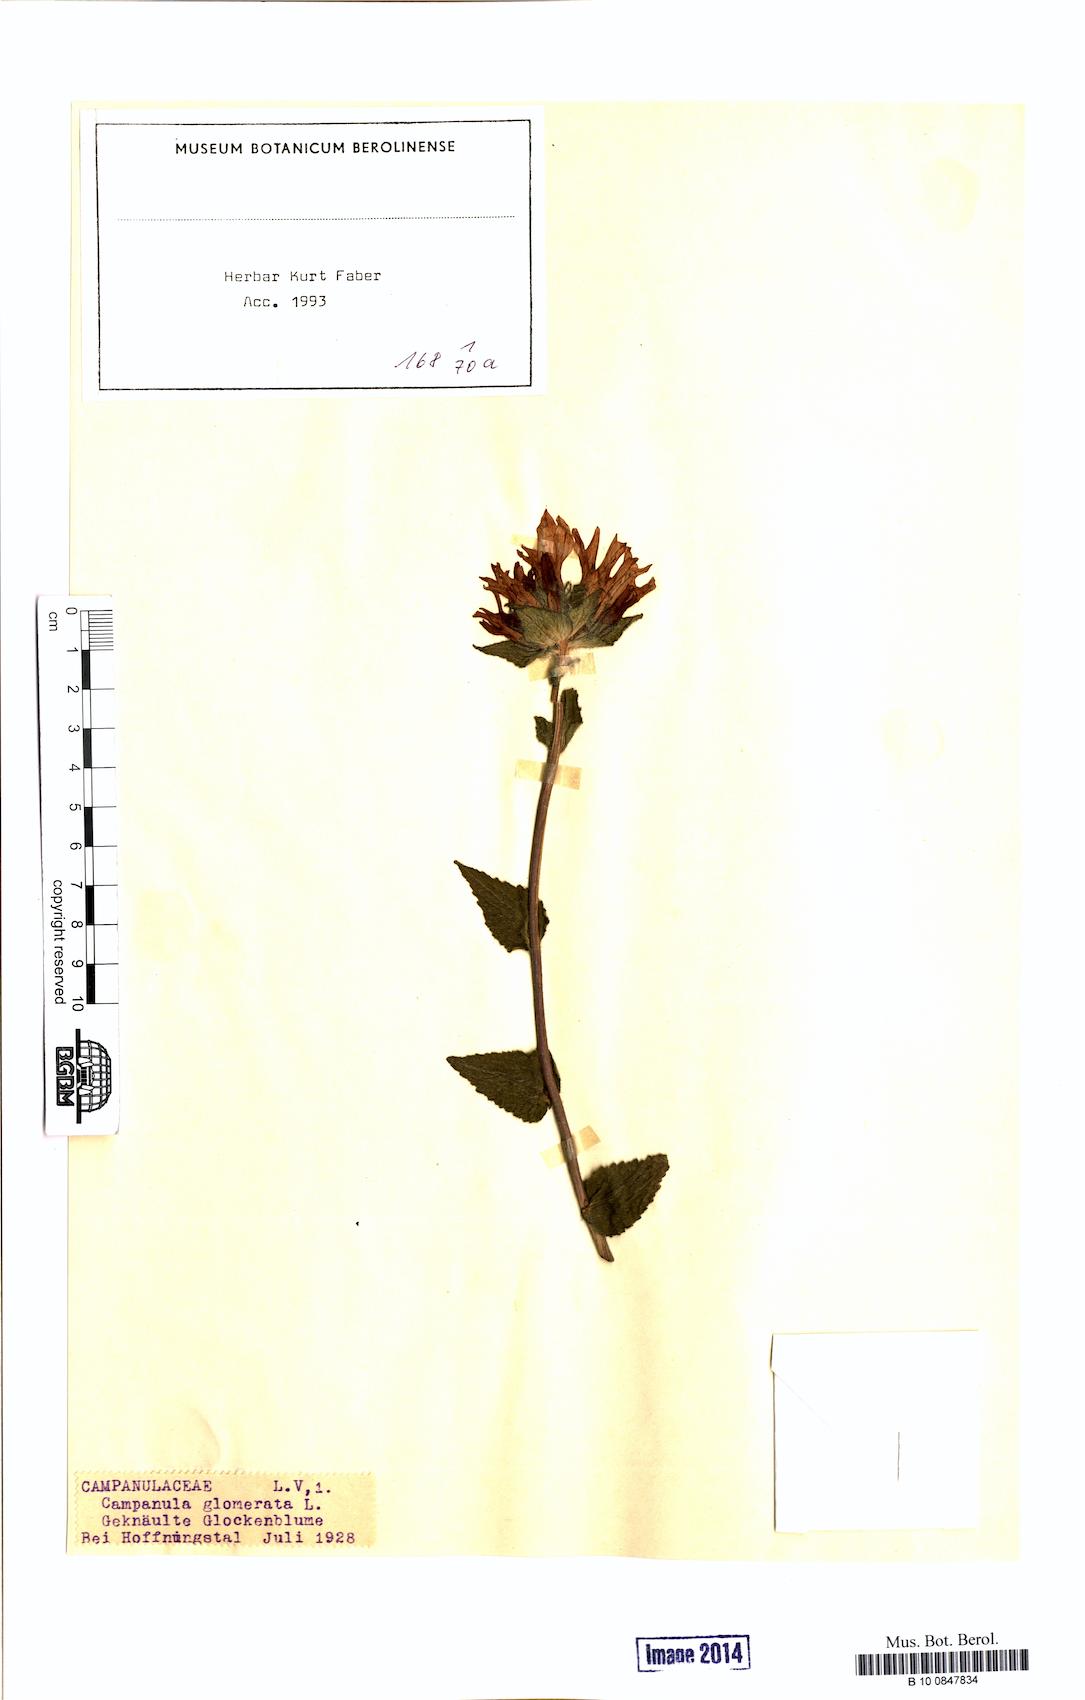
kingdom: Plantae
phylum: Tracheophyta
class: Magnoliopsida
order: Asterales
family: Campanulaceae
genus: Campanula
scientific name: Campanula glomerata
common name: Clustered bellflower
